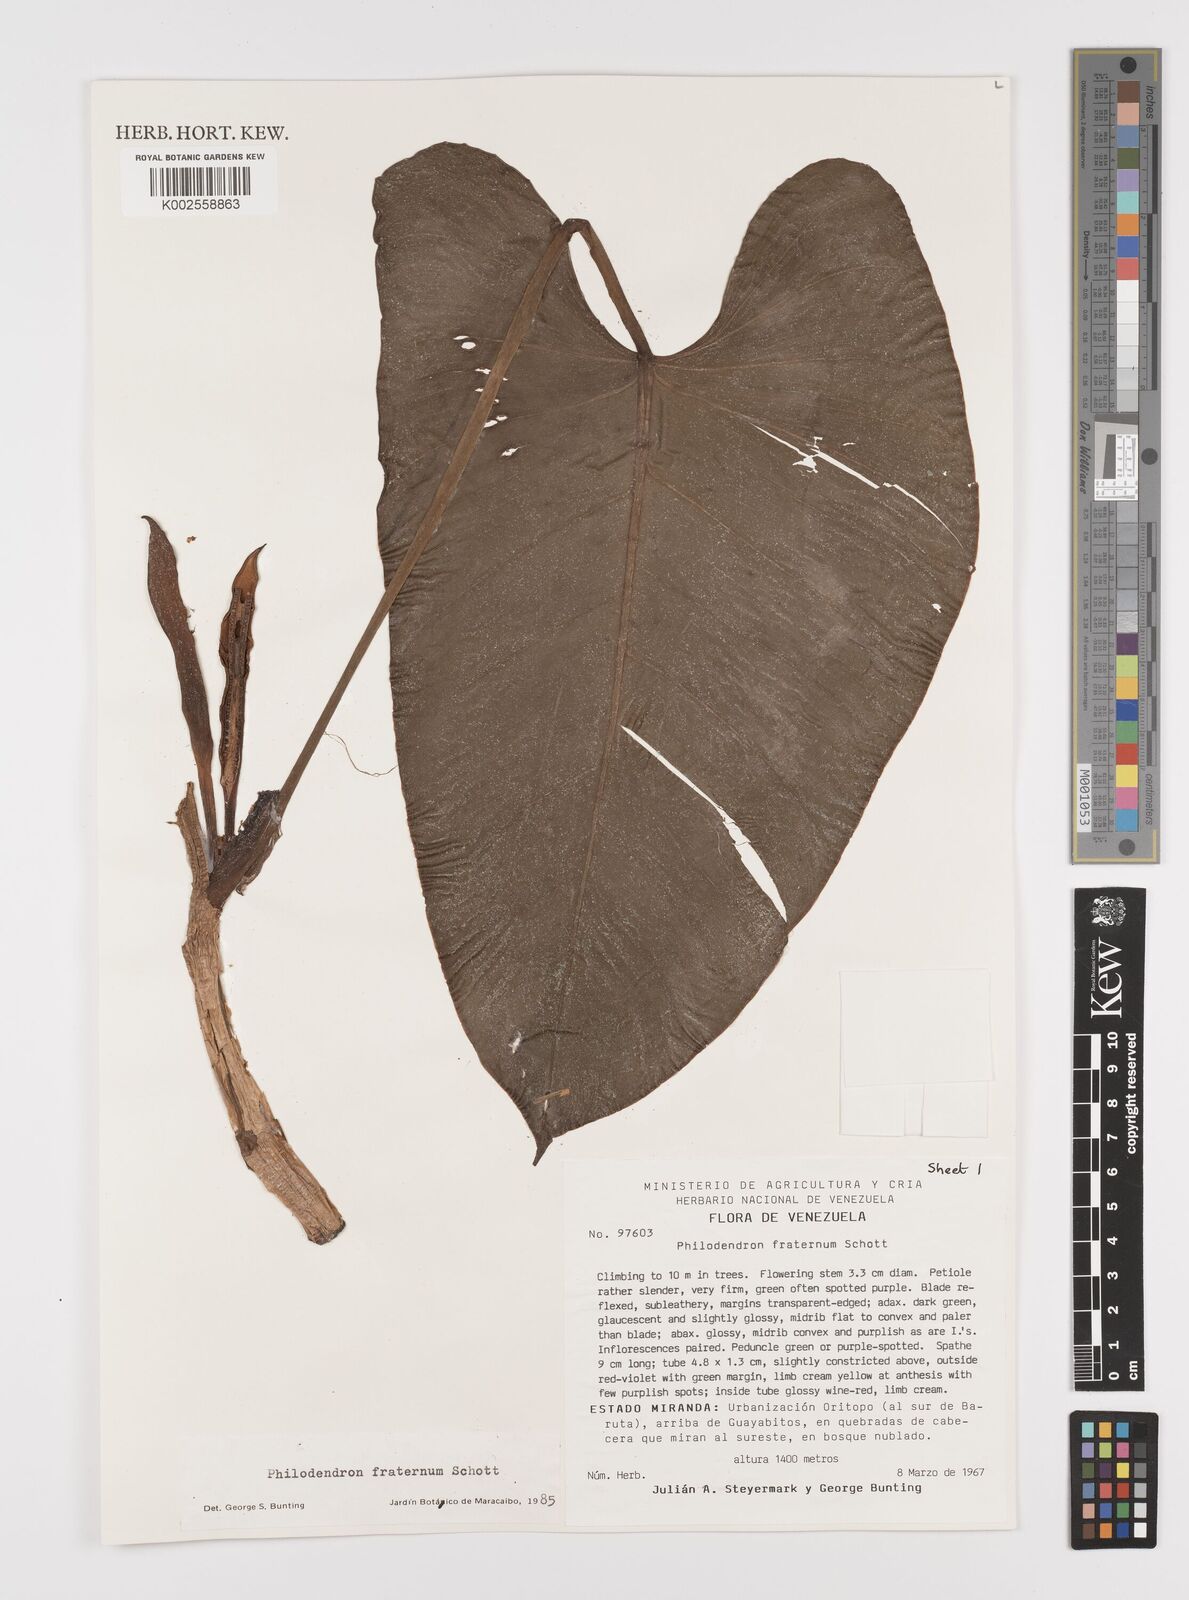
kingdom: Plantae
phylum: Tracheophyta
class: Liliopsida
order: Alismatales
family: Araceae
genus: Philodendron
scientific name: Philodendron fraternum
